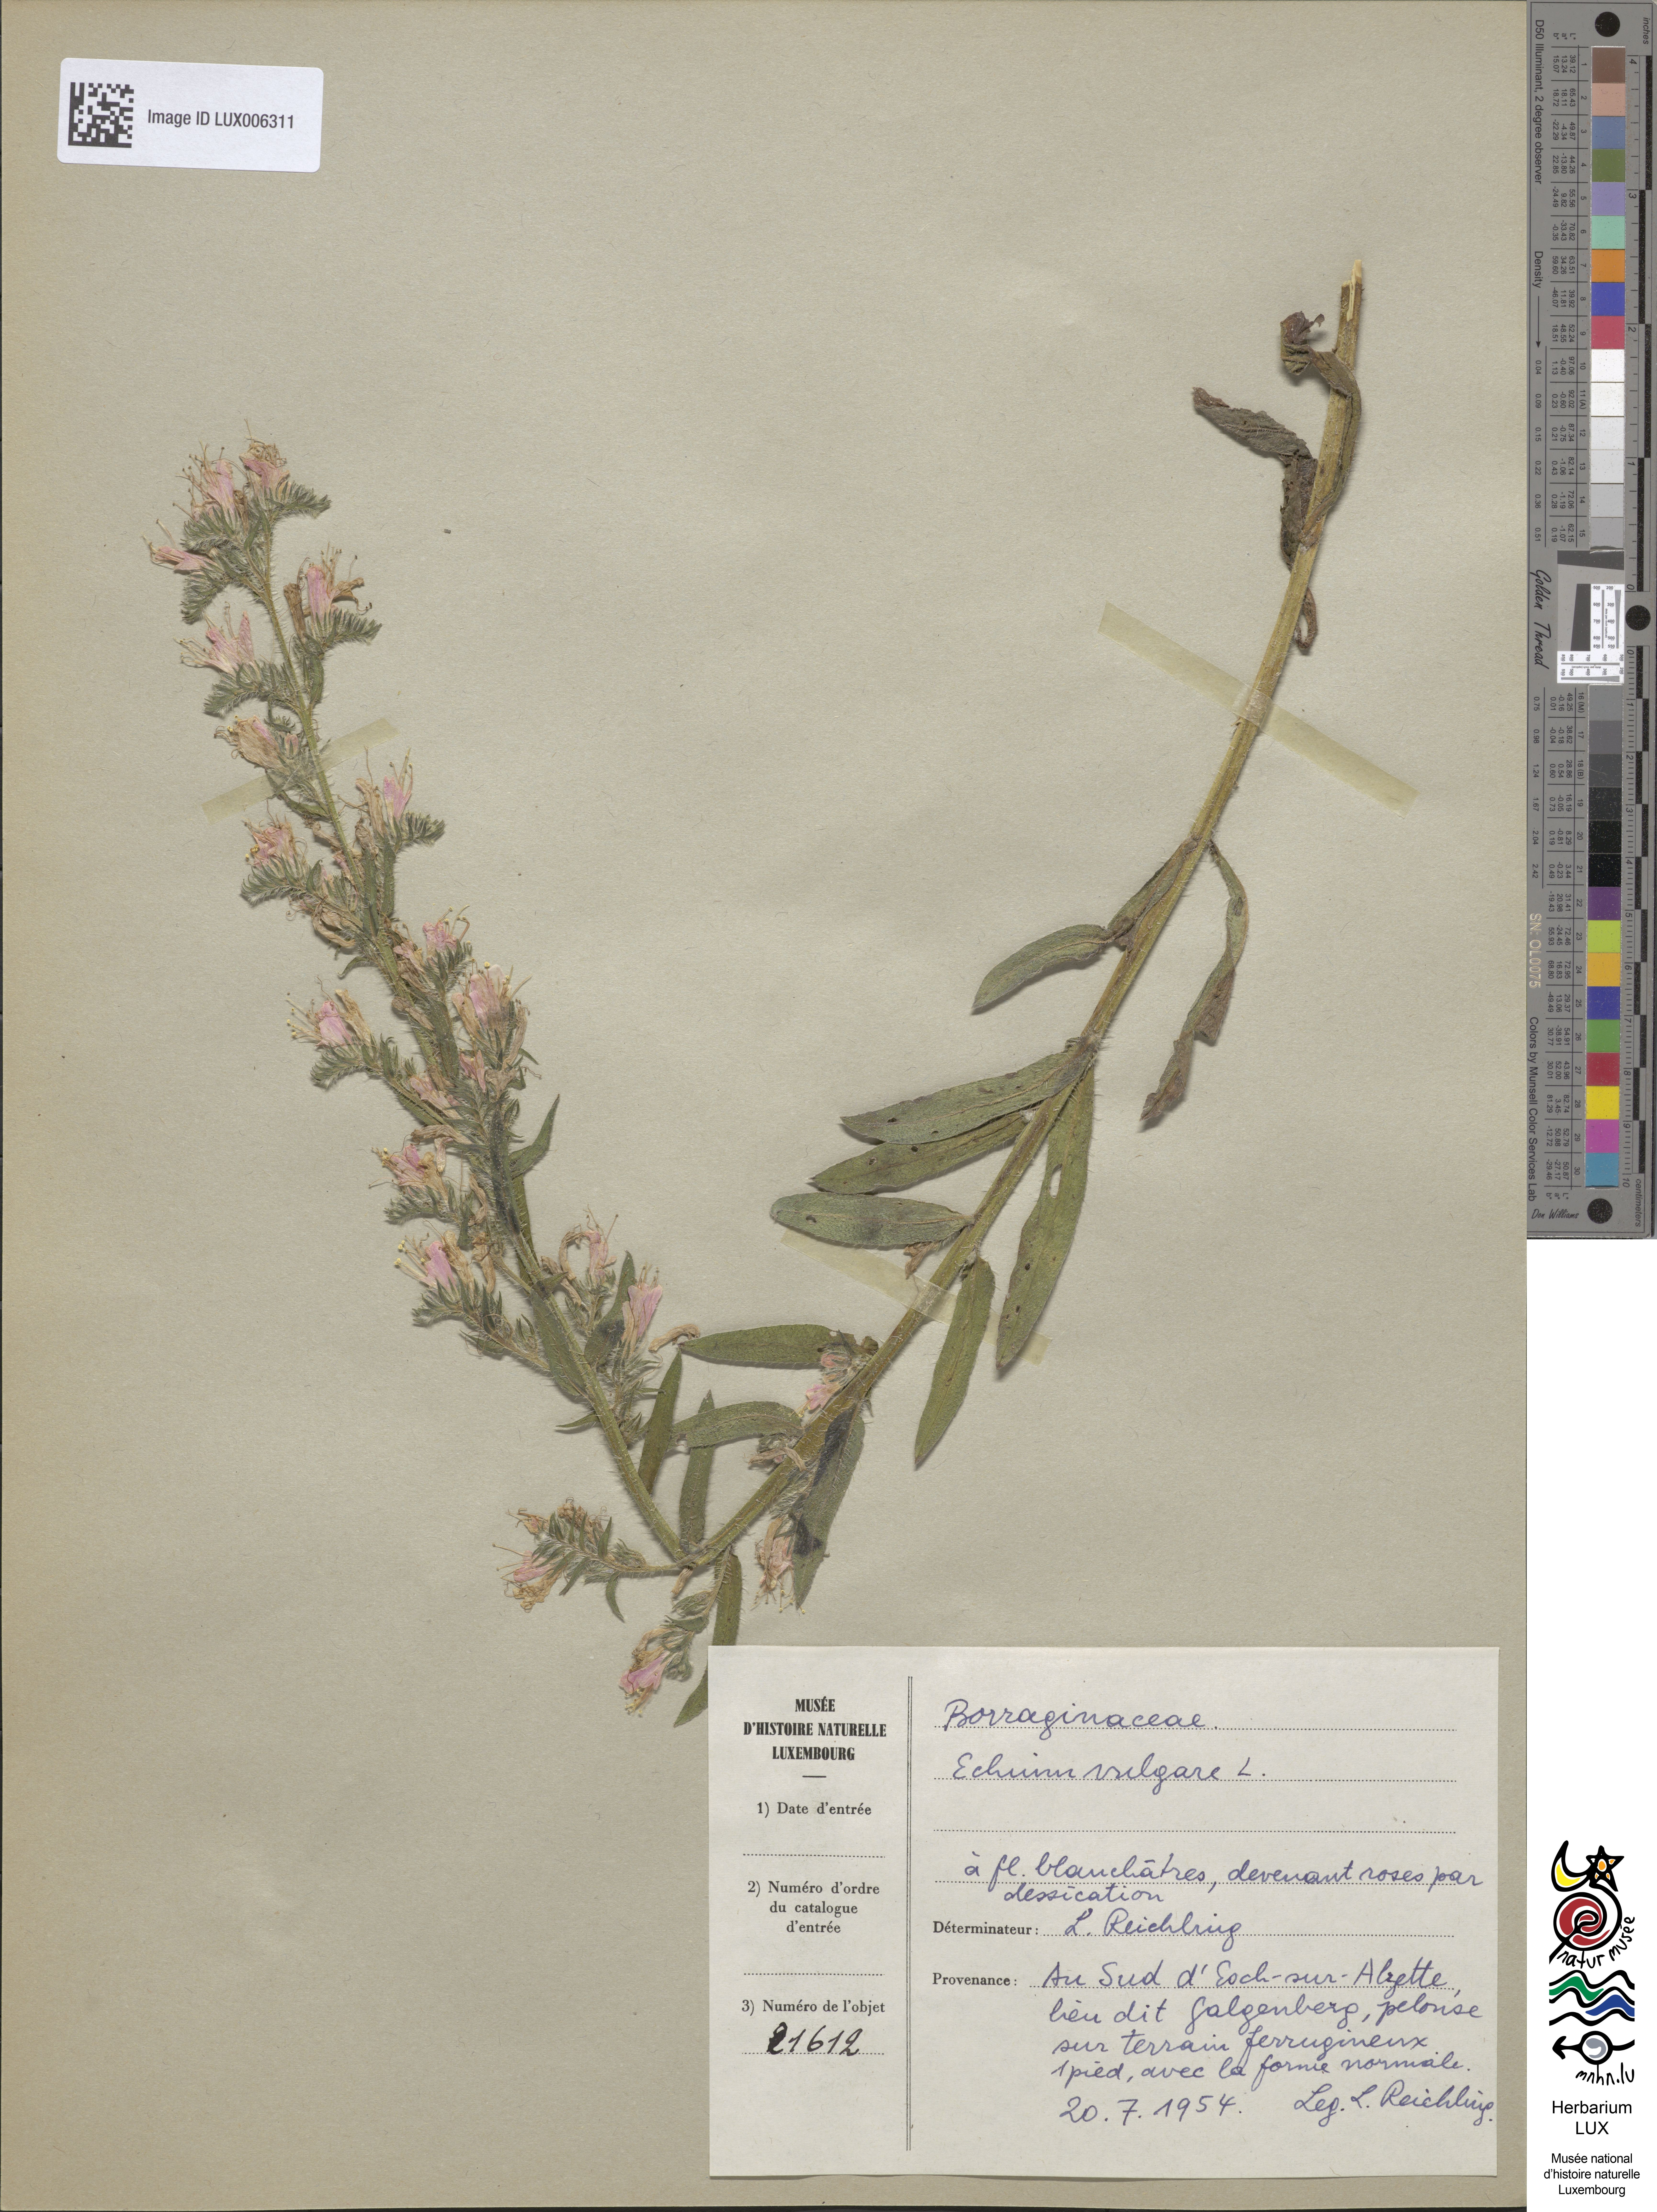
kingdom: Plantae
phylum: Tracheophyta
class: Magnoliopsida
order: Boraginales
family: Boraginaceae
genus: Echium
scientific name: Echium vulgare
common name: Common viper's bugloss
